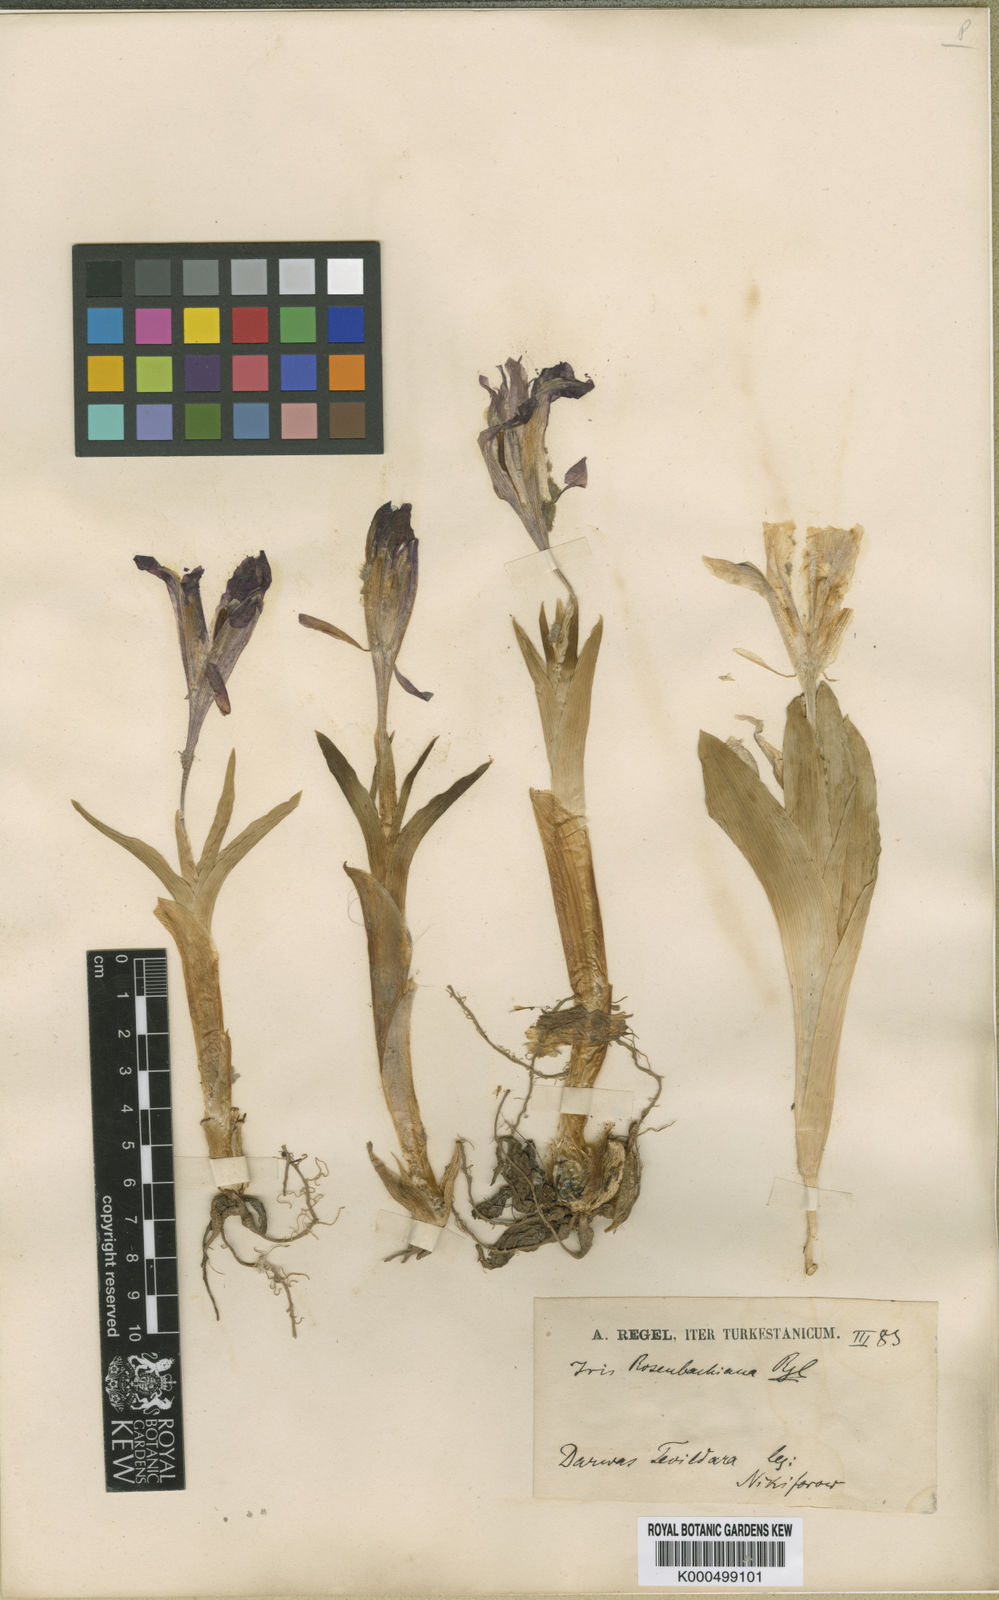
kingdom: Plantae
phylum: Tracheophyta
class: Liliopsida
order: Asparagales
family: Iridaceae
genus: Iris
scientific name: Iris rosenbachiana
